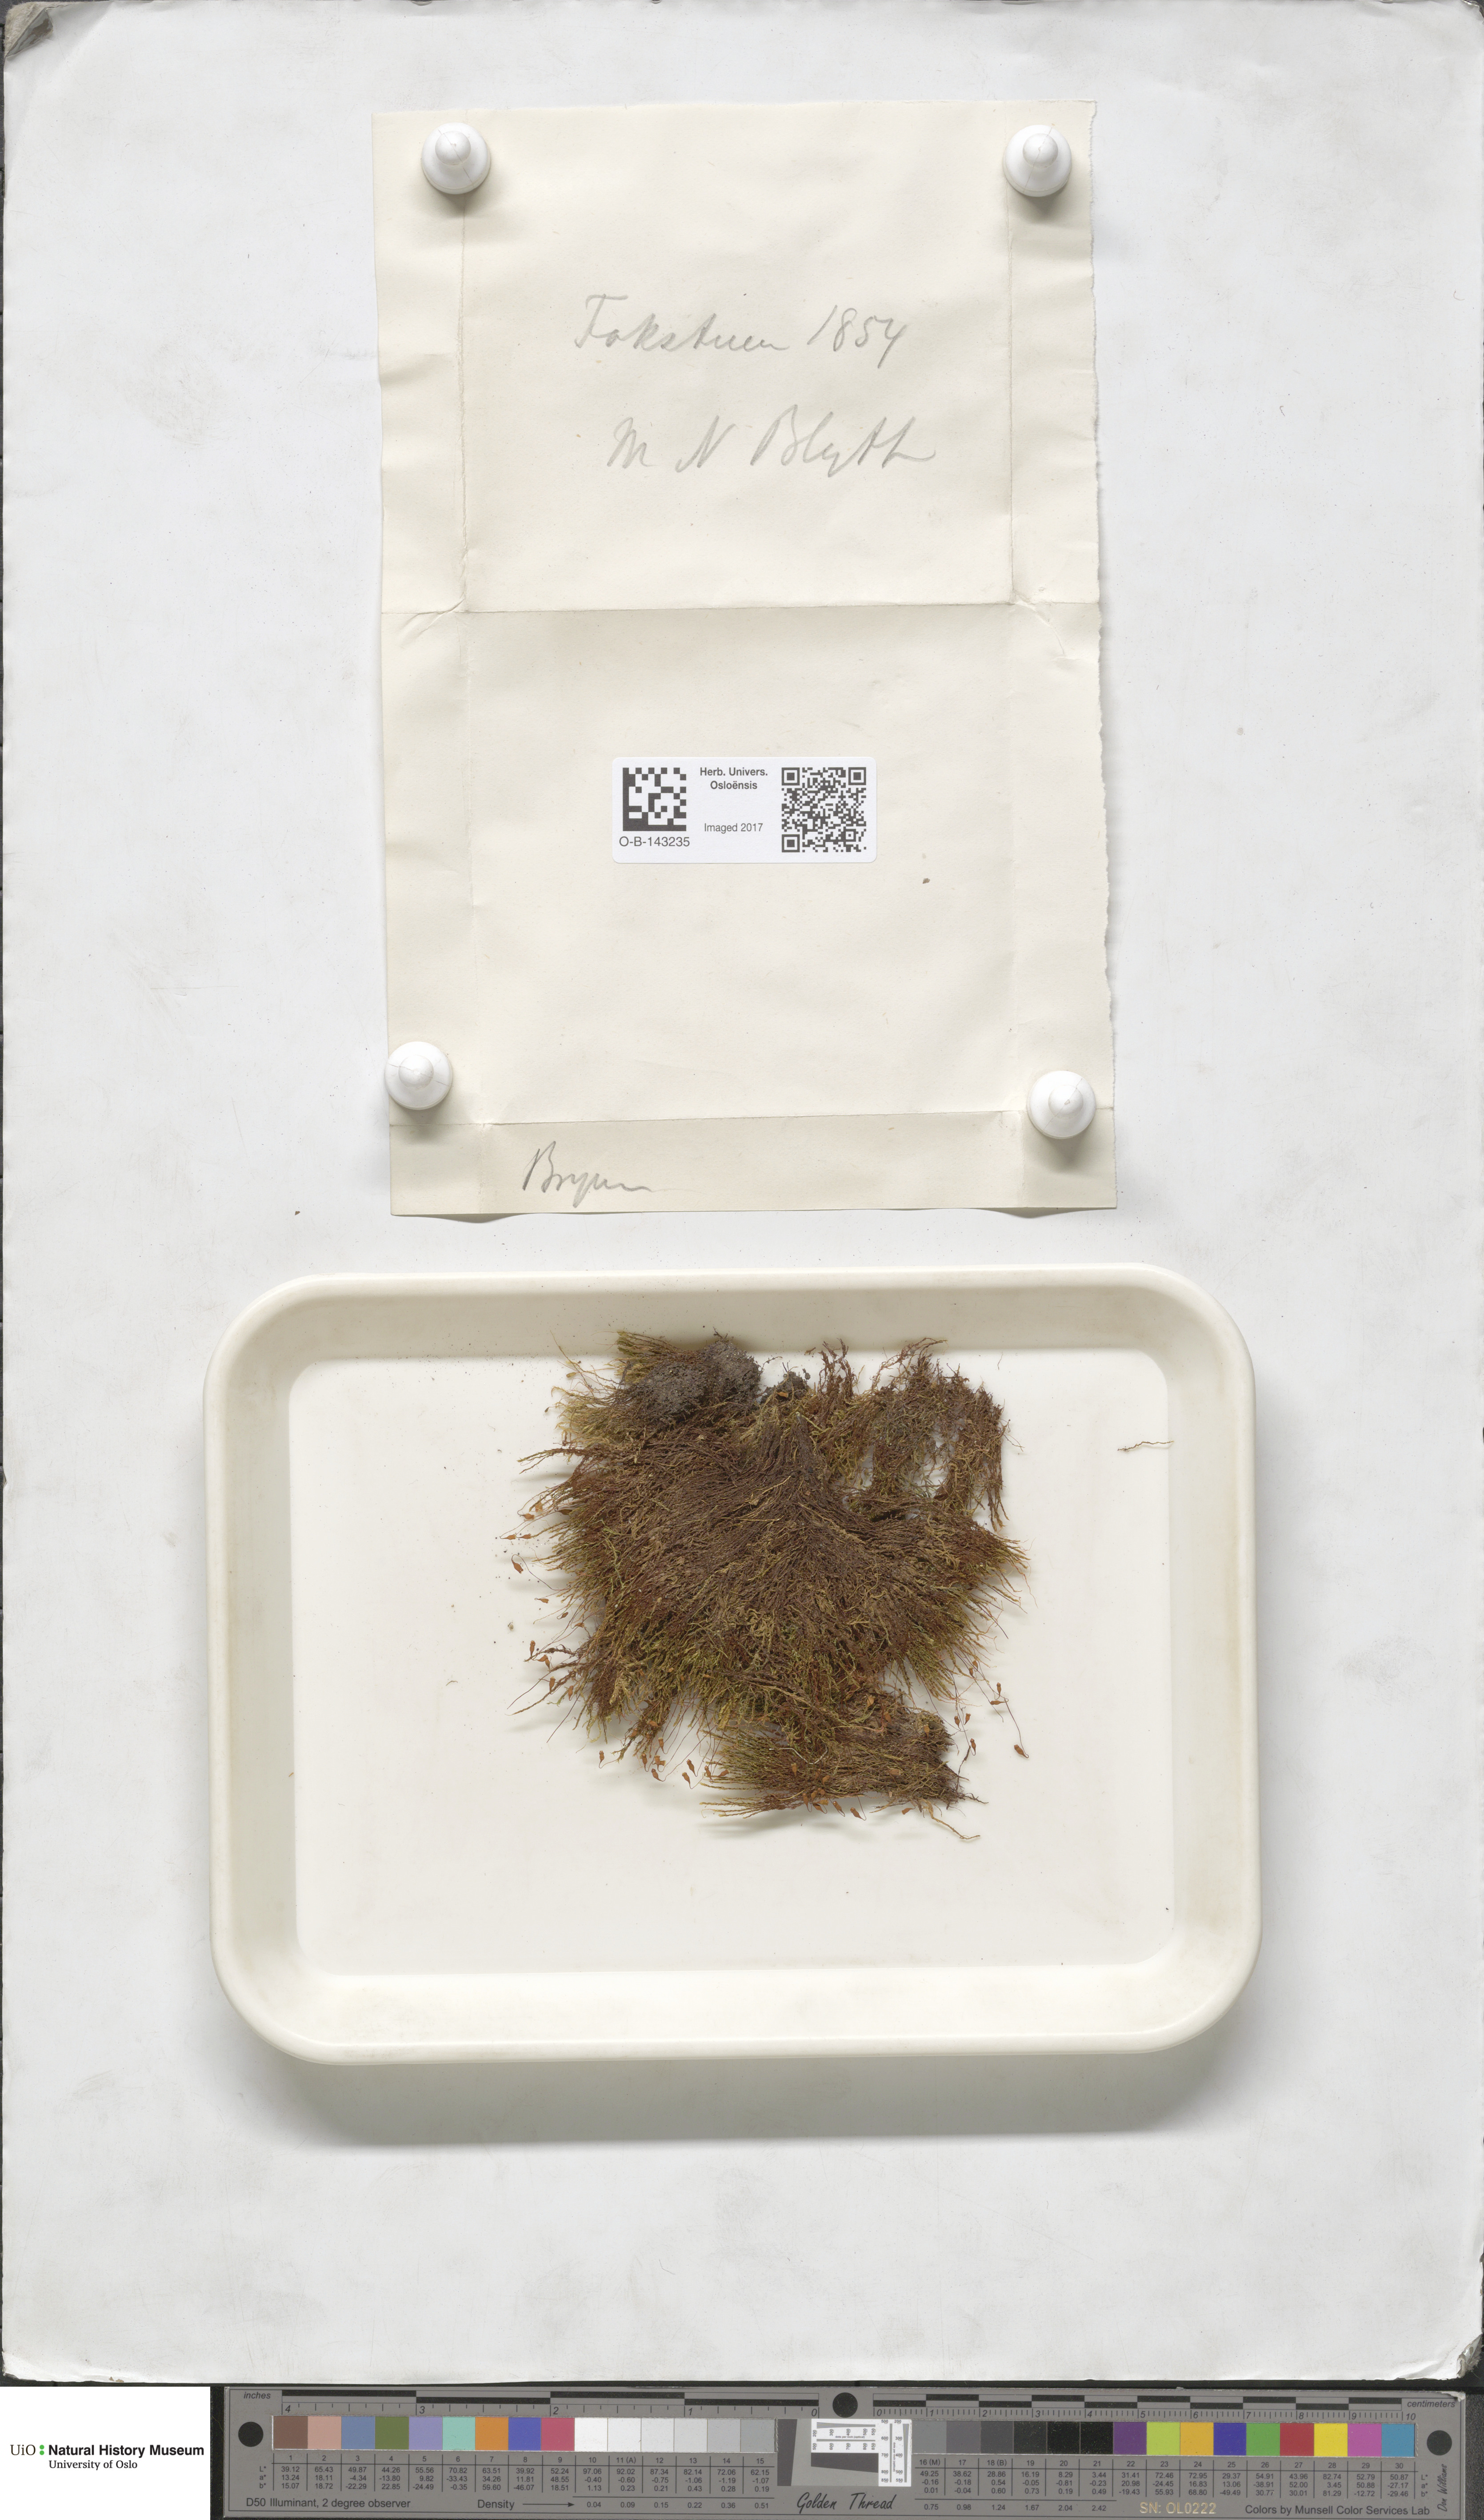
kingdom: Plantae
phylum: Bryophyta
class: Bryopsida
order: Bryales
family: Bryaceae
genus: Bryum
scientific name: Bryum
